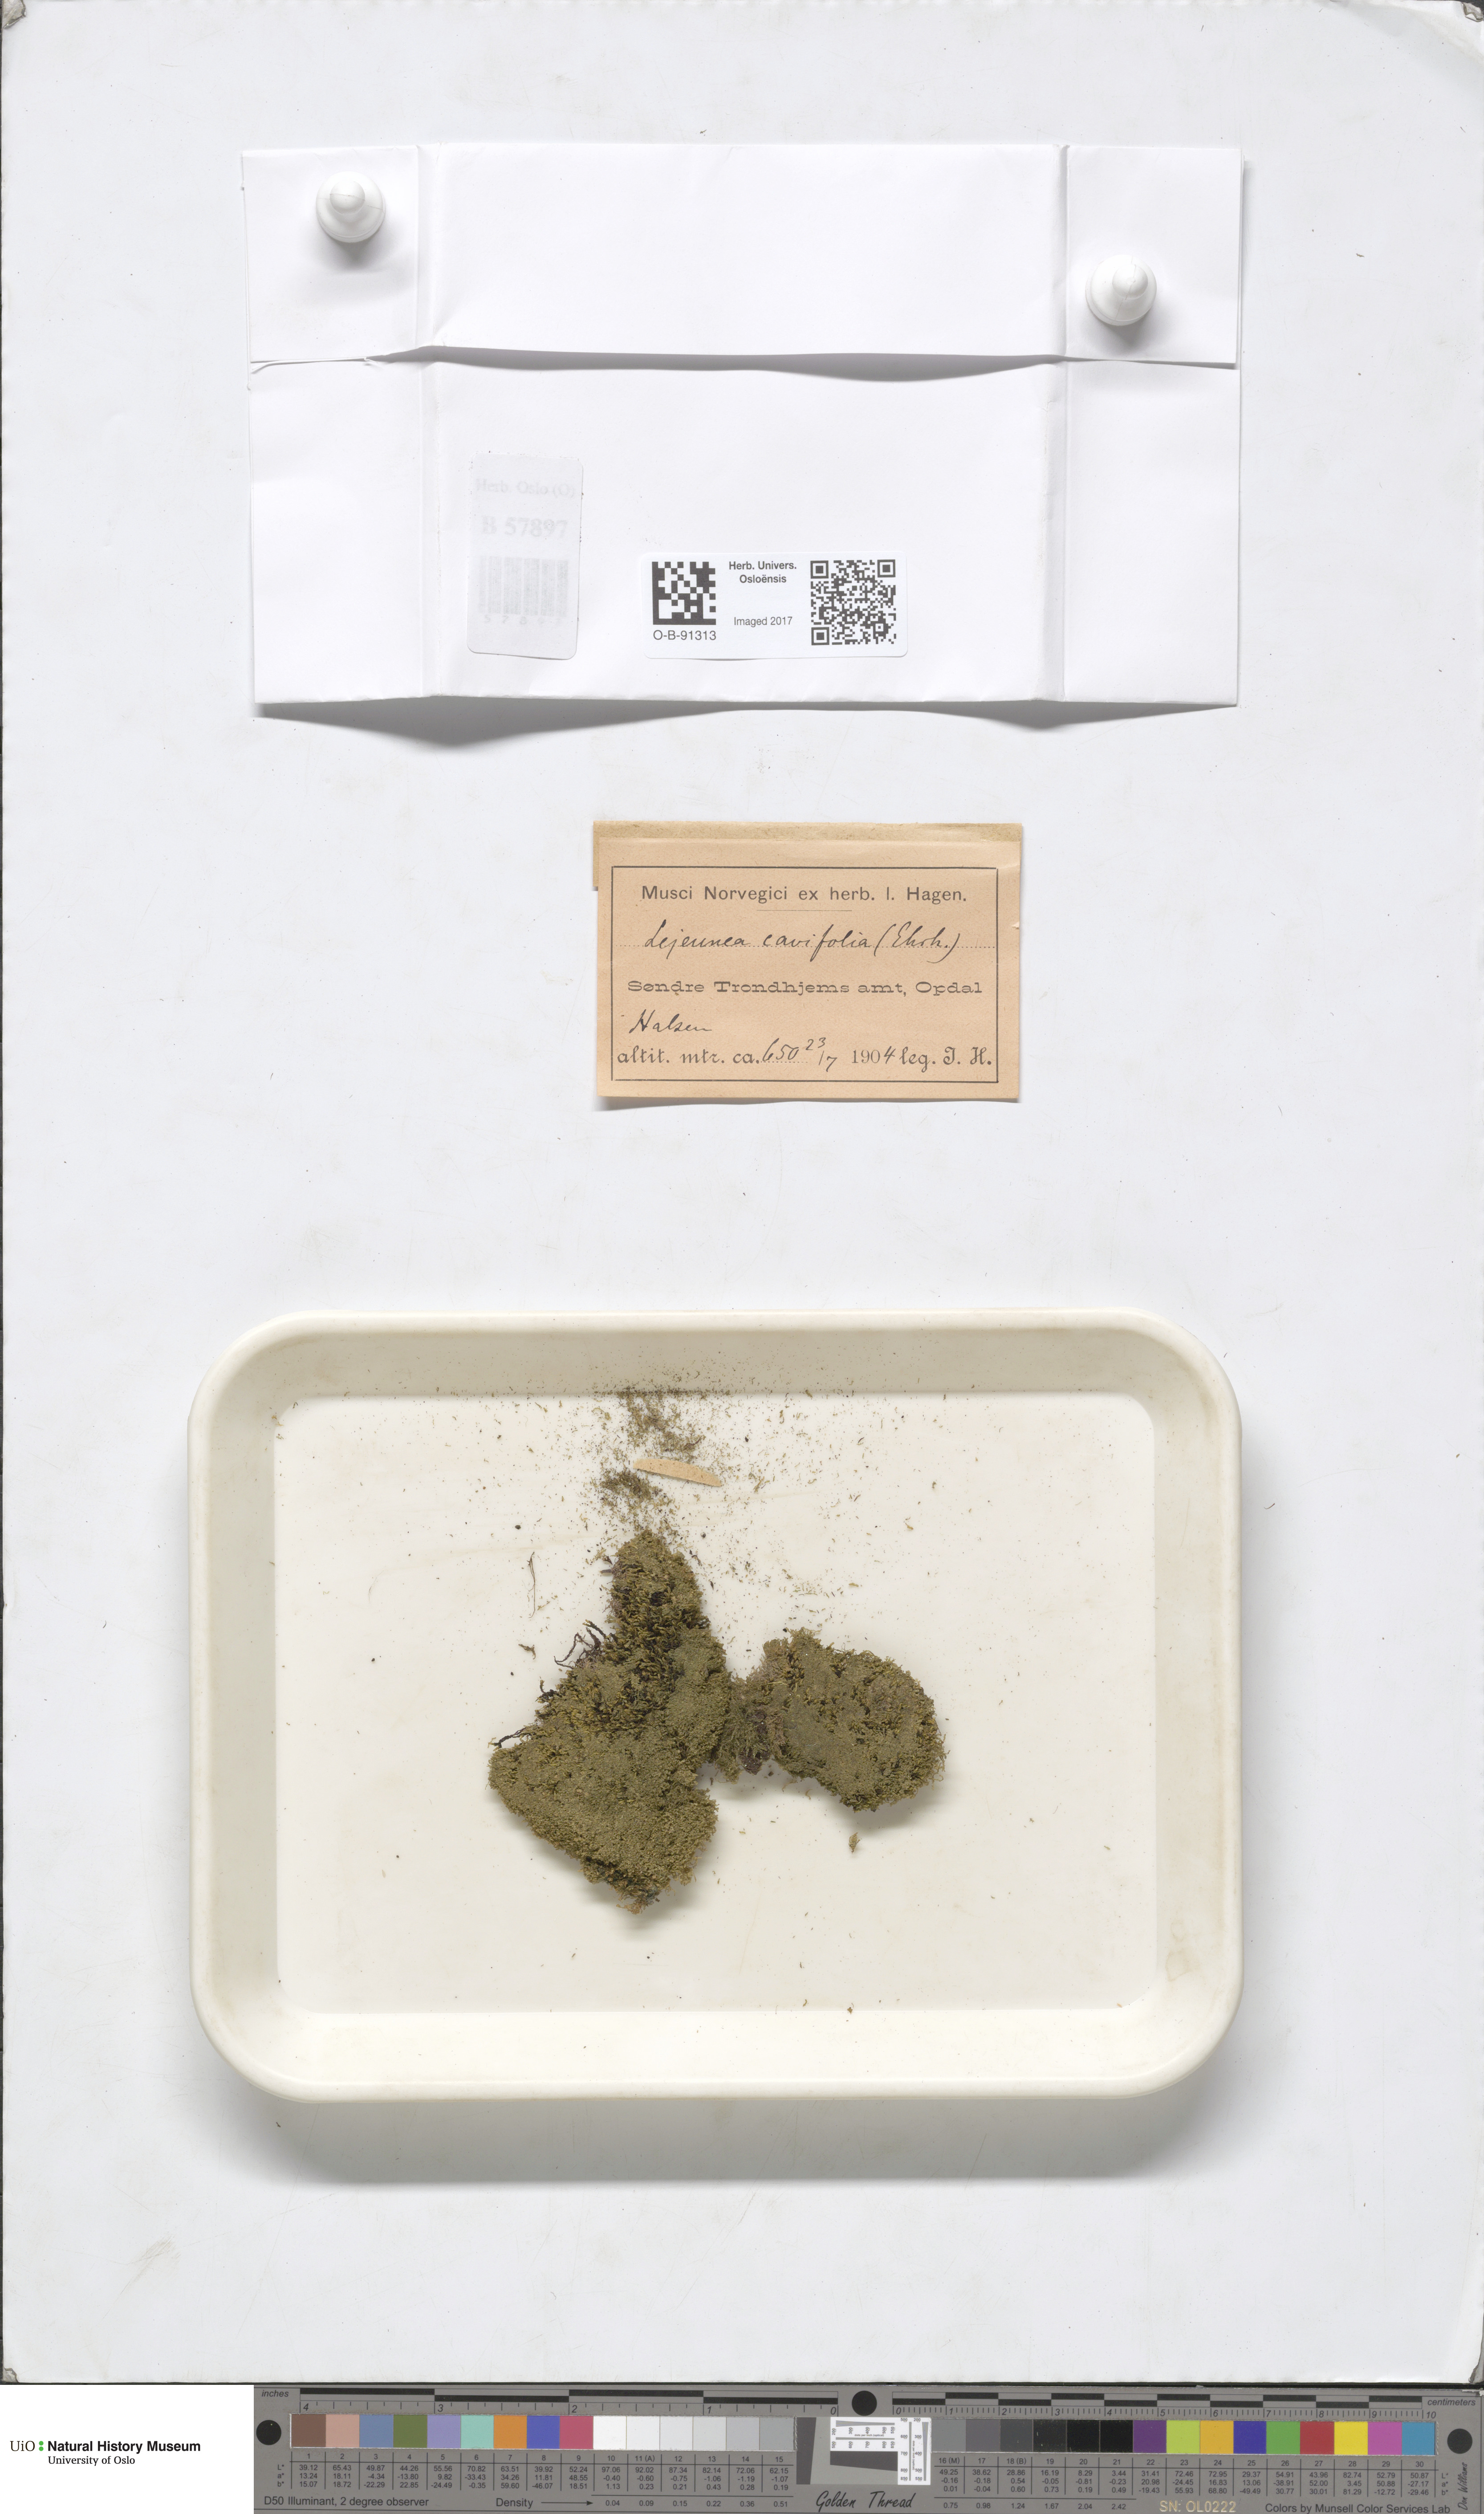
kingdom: Plantae
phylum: Marchantiophyta
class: Jungermanniopsida
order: Porellales
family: Lejeuneaceae
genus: Lejeunea
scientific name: Lejeunea cavifolia
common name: Least pouncewort
